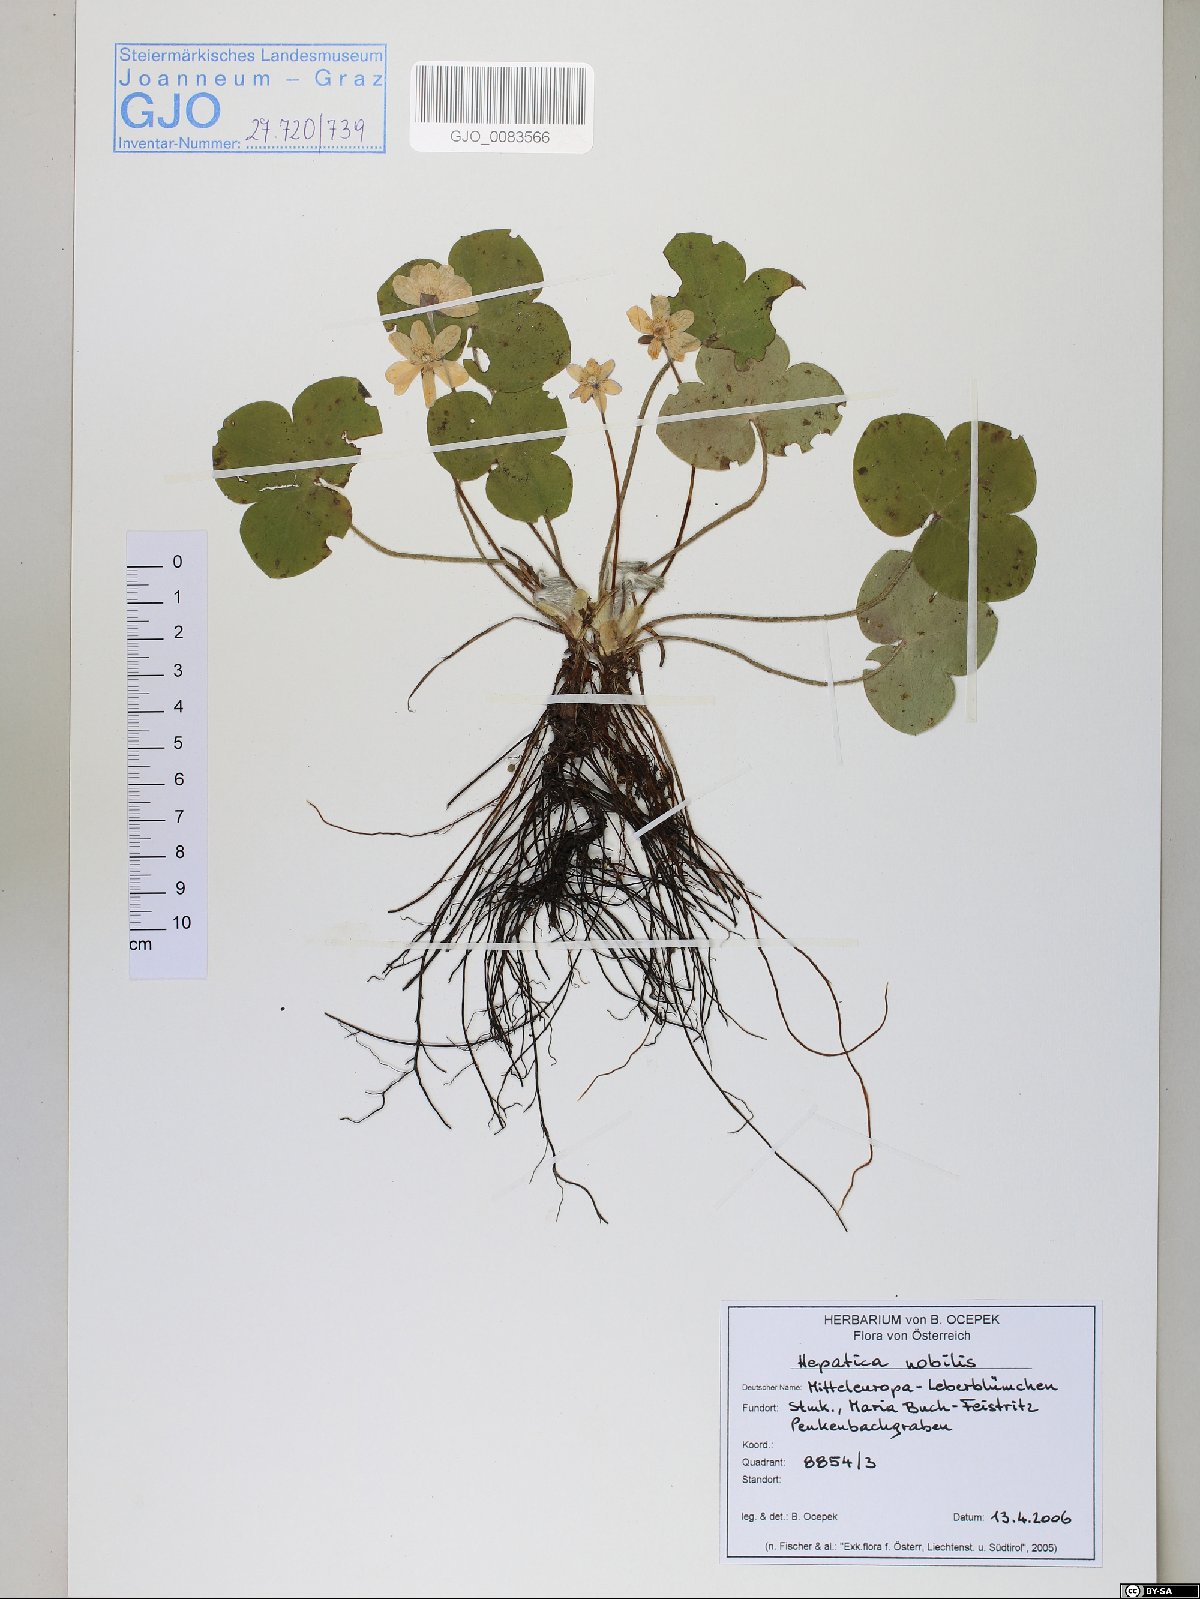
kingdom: Plantae
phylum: Tracheophyta
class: Magnoliopsida
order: Ranunculales
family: Ranunculaceae
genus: Hepatica
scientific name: Hepatica nobilis
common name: Liverleaf
